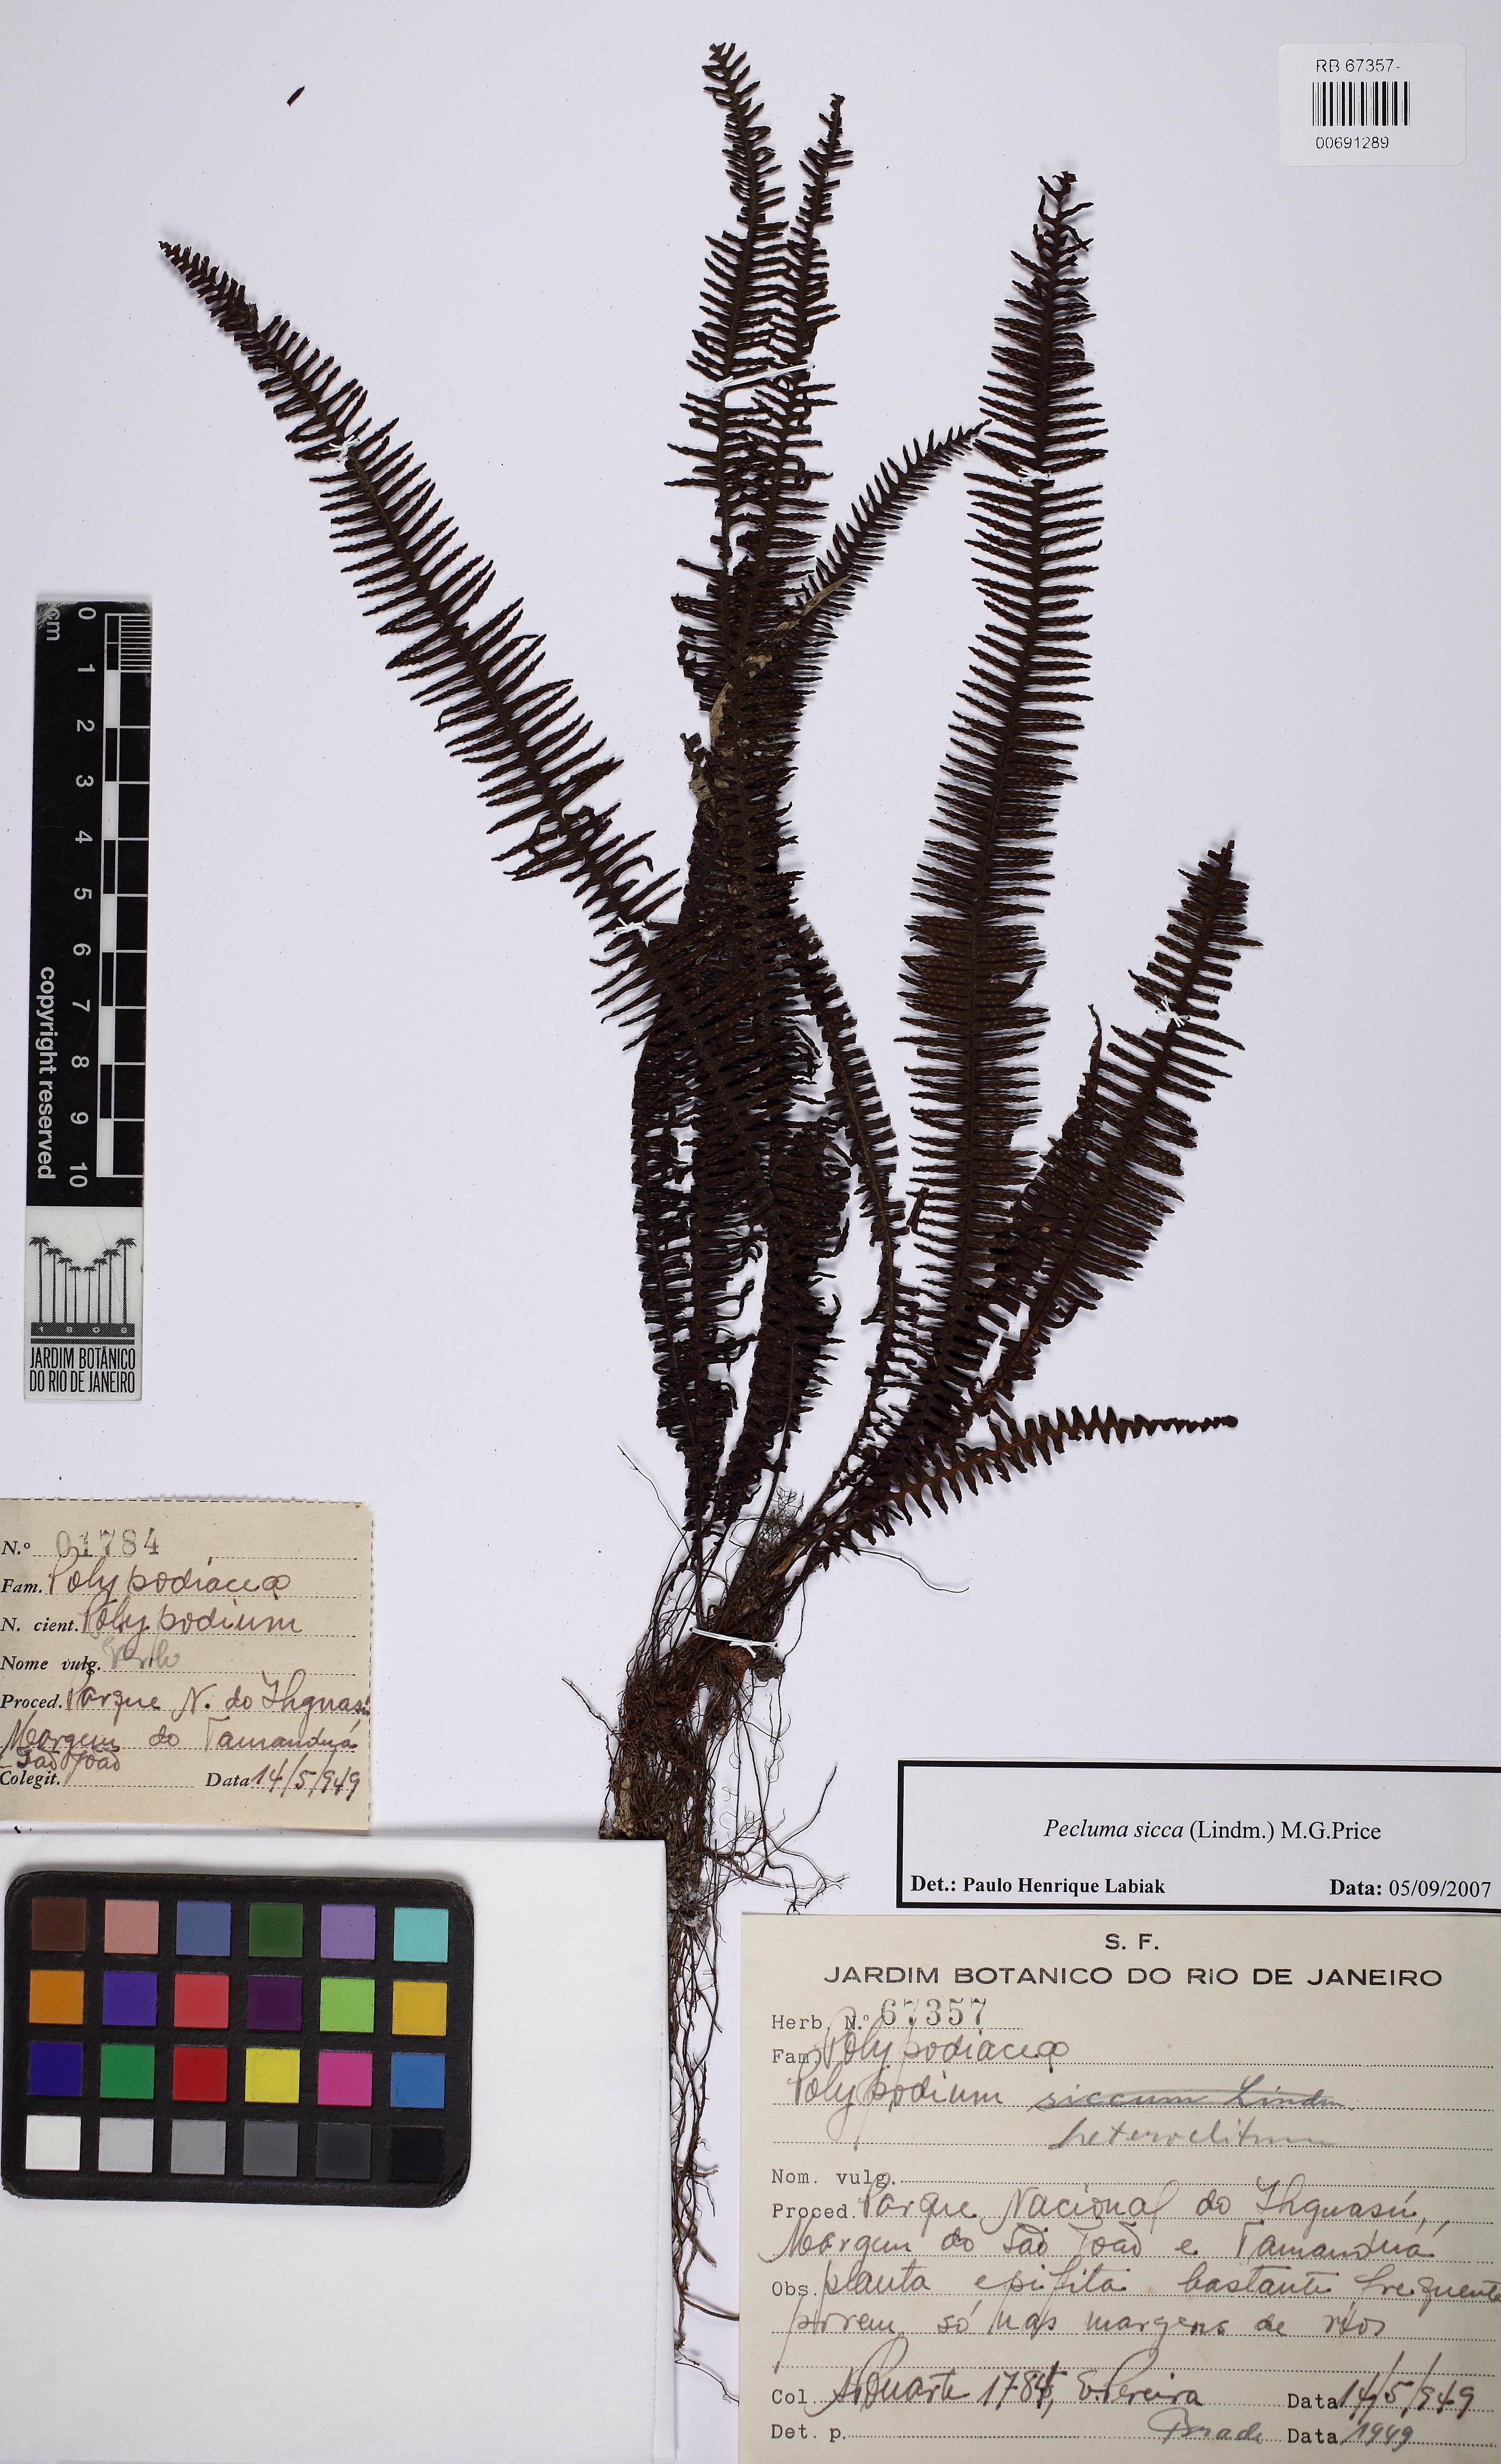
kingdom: Plantae
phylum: Tracheophyta
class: Polypodiopsida
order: Polypodiales
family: Polypodiaceae
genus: Pecluma
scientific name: Pecluma sicca
